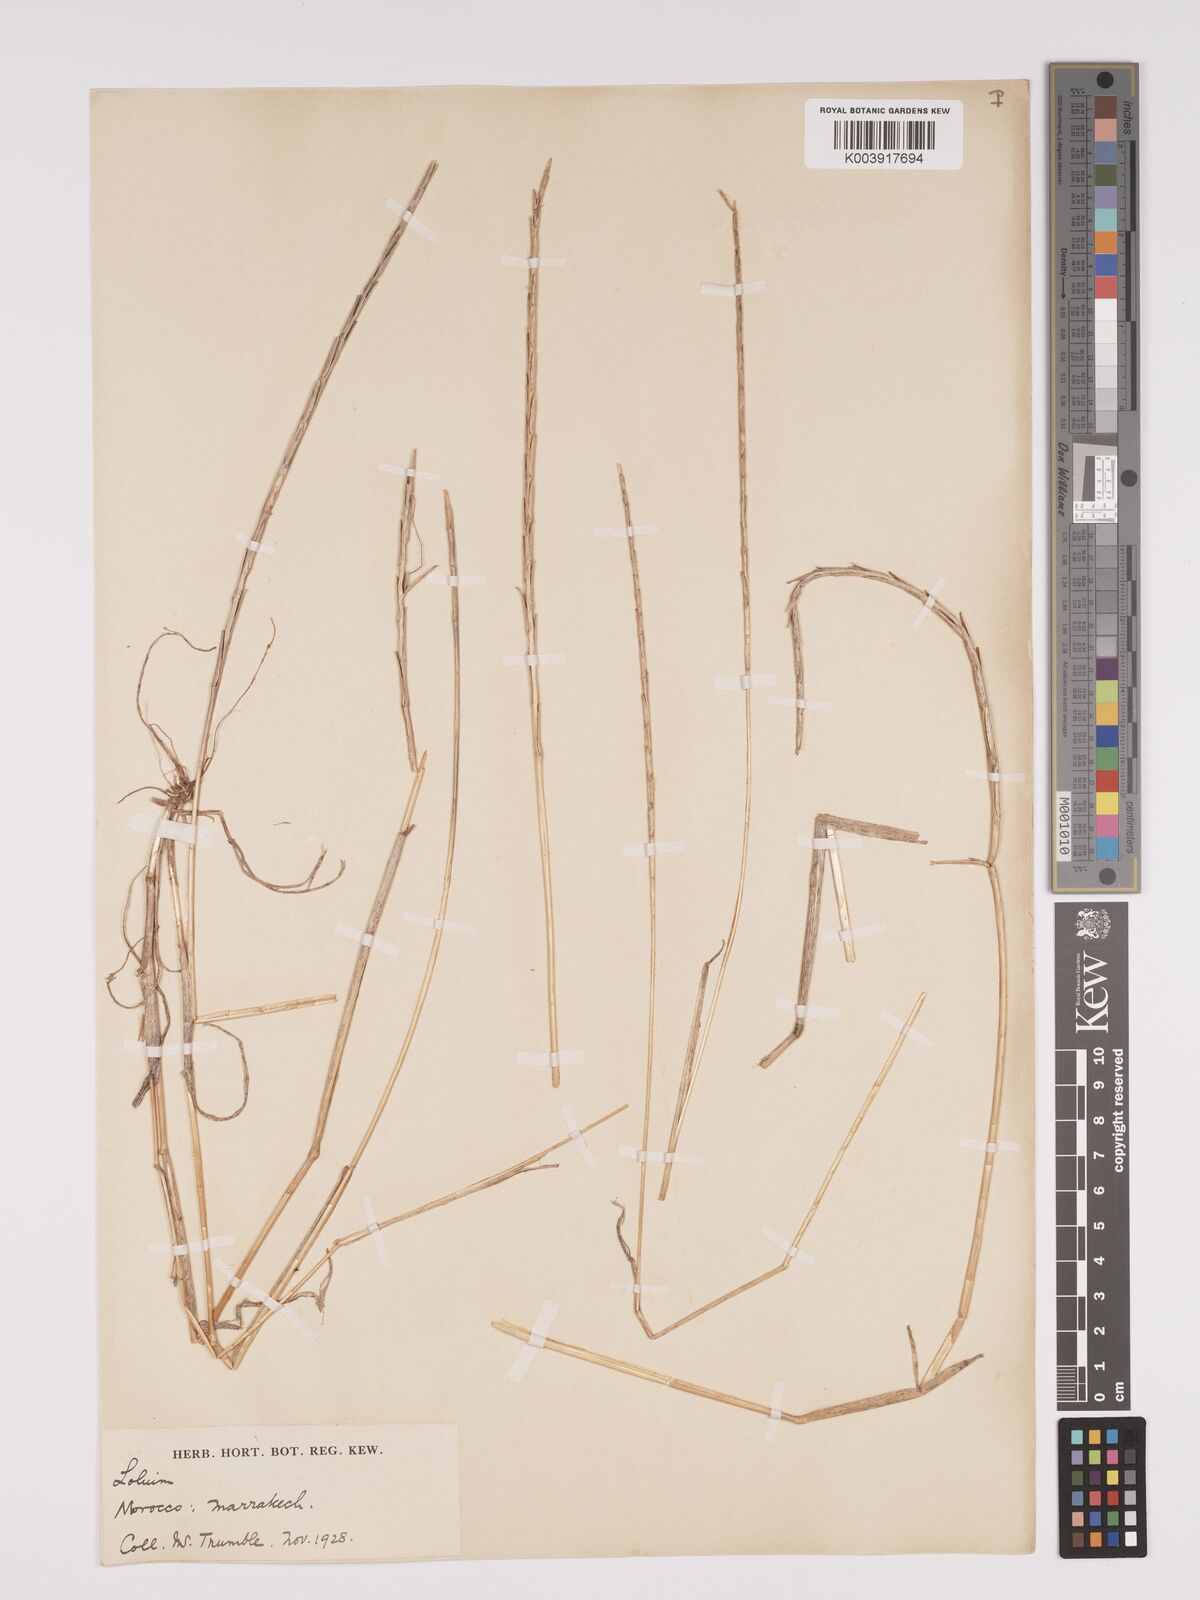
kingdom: Plantae
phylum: Tracheophyta
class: Liliopsida
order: Poales
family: Poaceae
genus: Lolium
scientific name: Lolium rigidum
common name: Wimmera ryegrass
